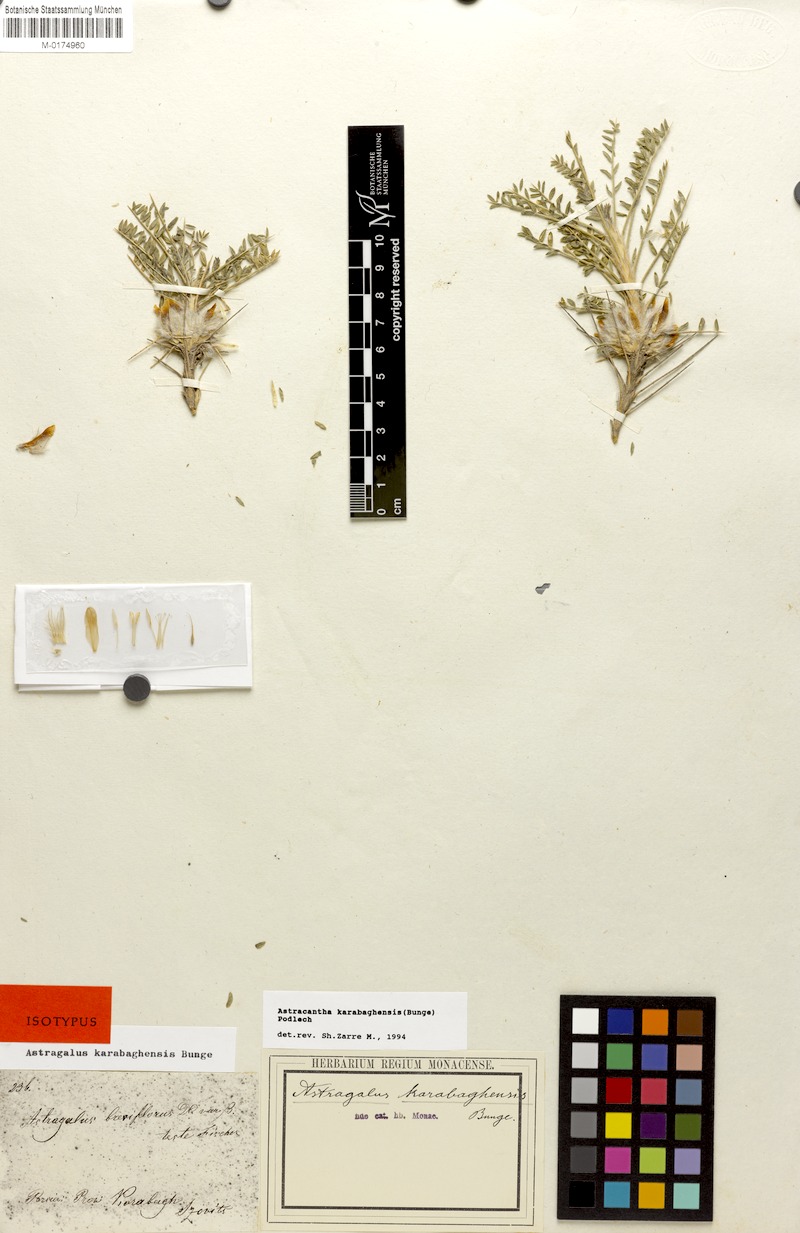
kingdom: Plantae
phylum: Tracheophyta
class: Magnoliopsida
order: Fabales
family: Fabaceae
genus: Astragalus
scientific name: Astragalus karabaghensis
